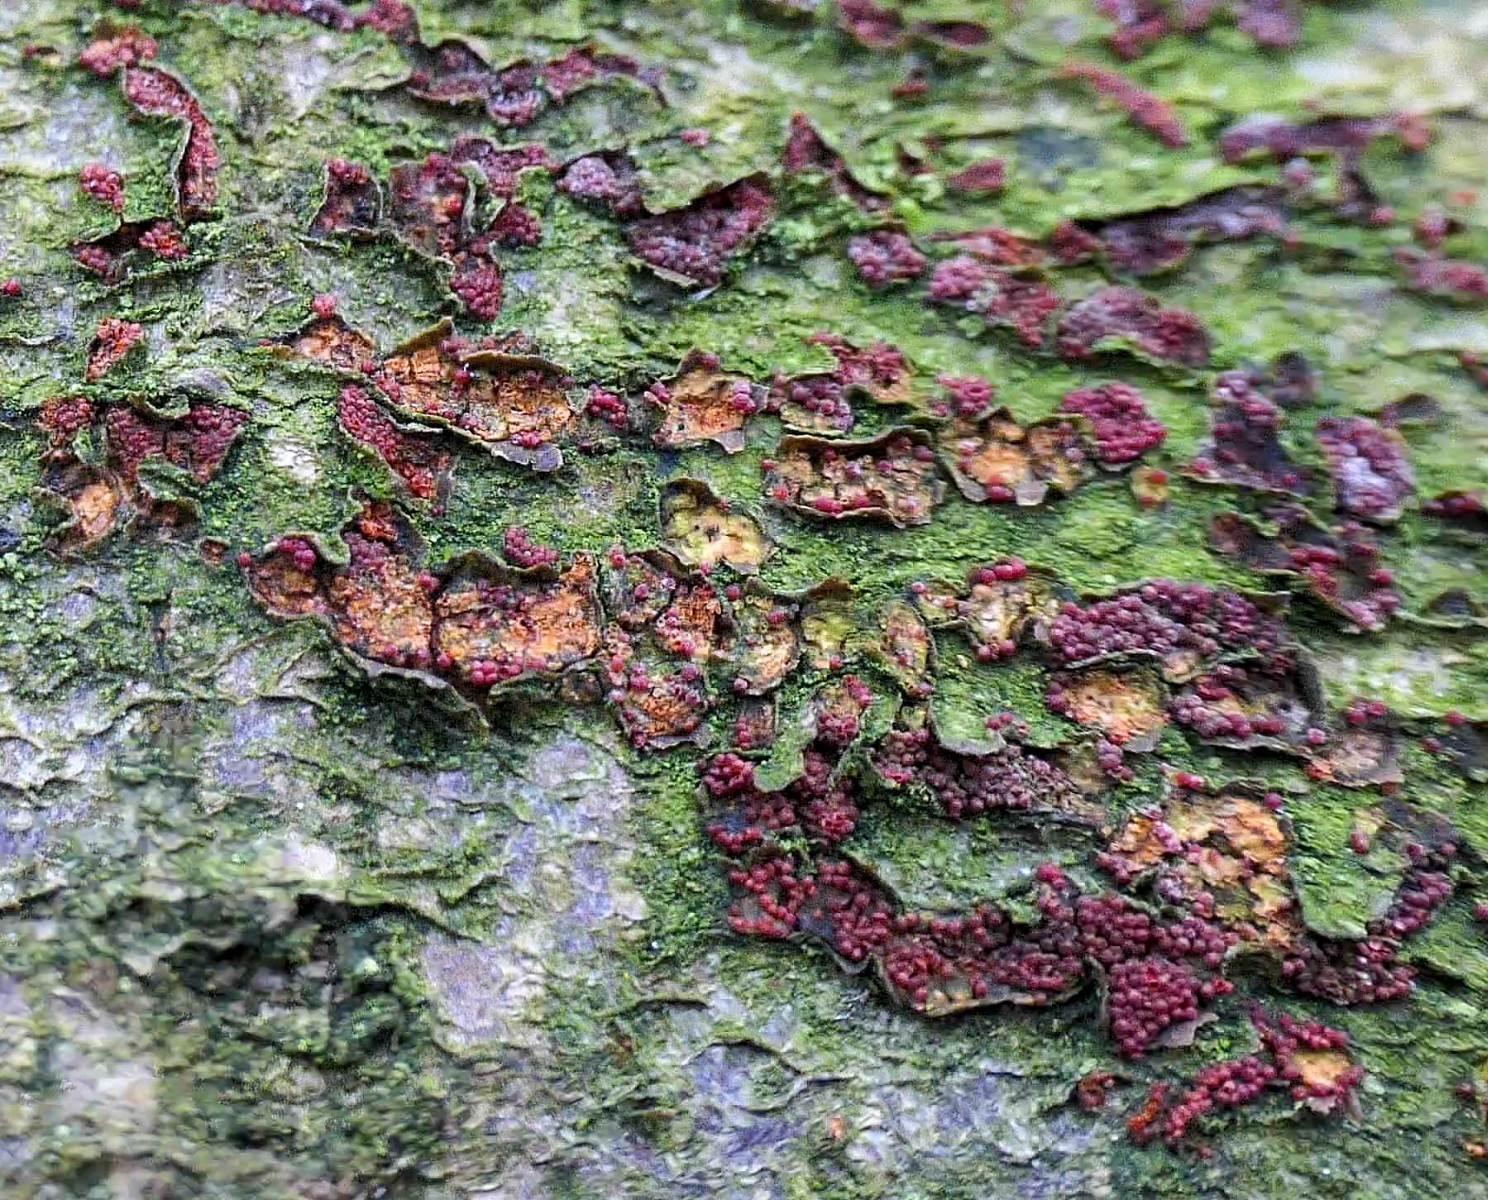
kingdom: Fungi
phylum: Ascomycota
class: Sordariomycetes
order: Hypocreales
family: Nectriaceae
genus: Neonectria
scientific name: Neonectria coccinea
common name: bøgebark-cinnobersvamp
